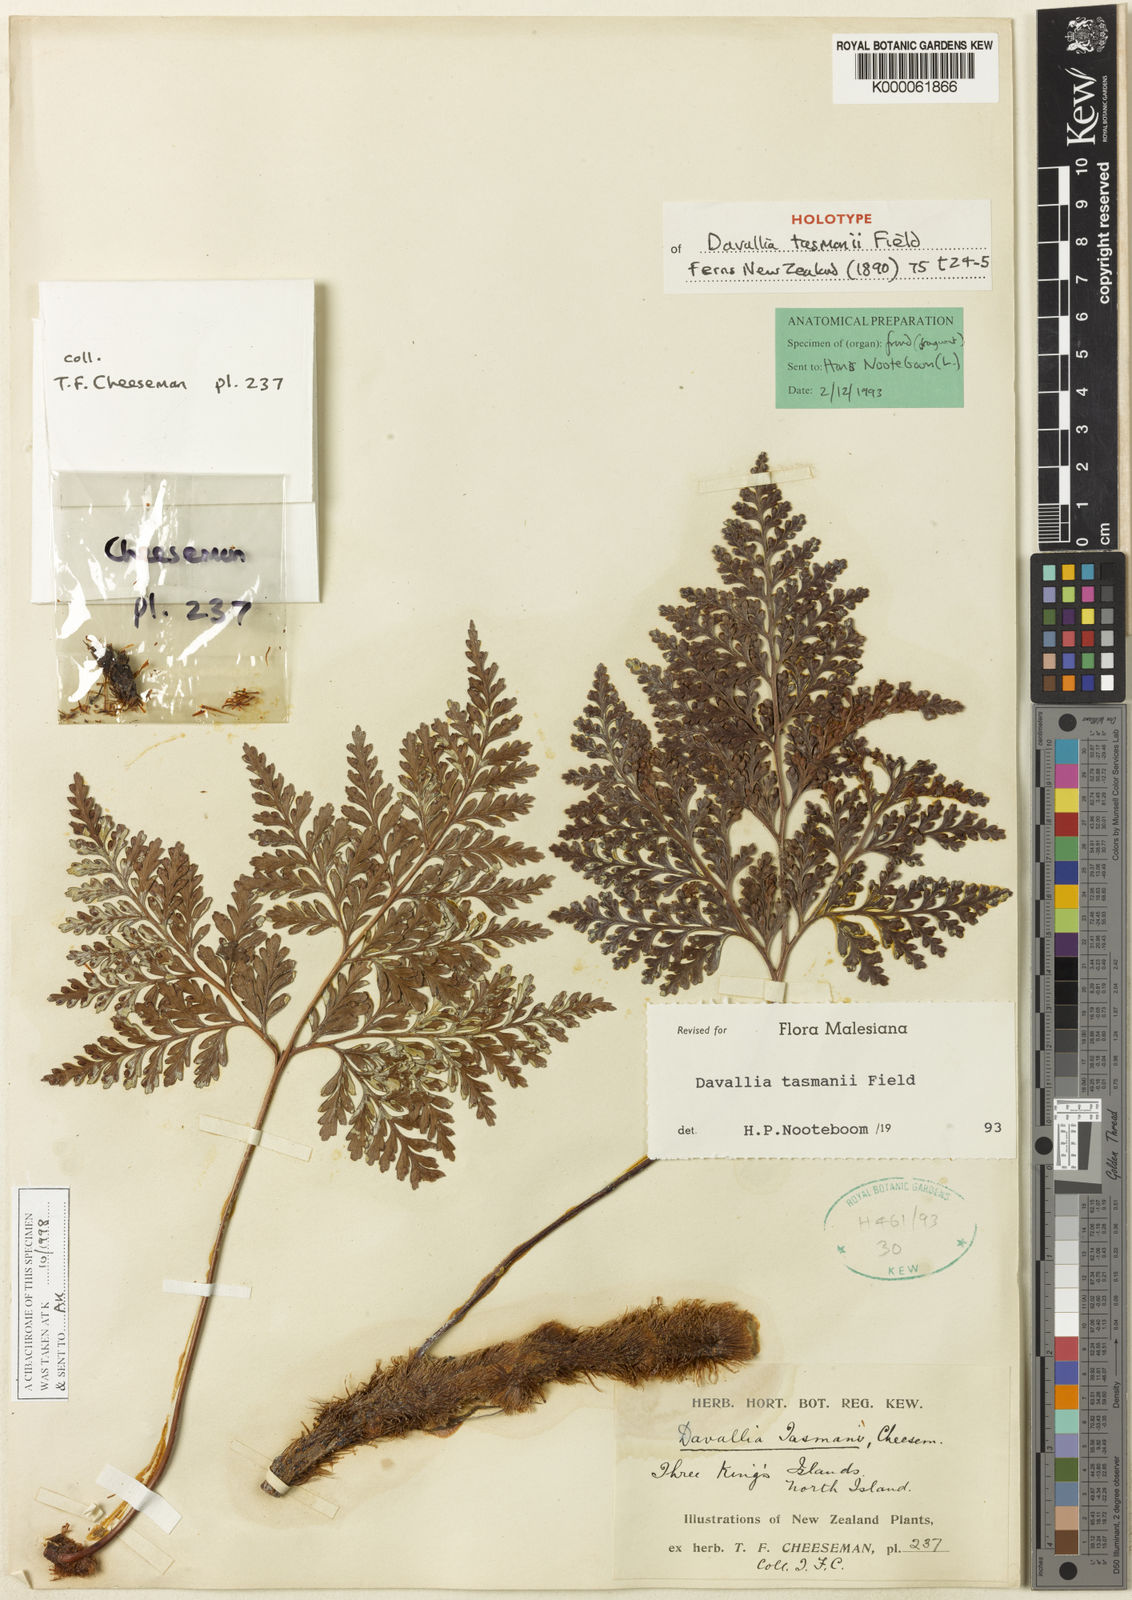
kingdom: Plantae
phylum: Tracheophyta
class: Polypodiopsida
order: Polypodiales
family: Davalliaceae
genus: Davallia
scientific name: Davallia tasmanii
